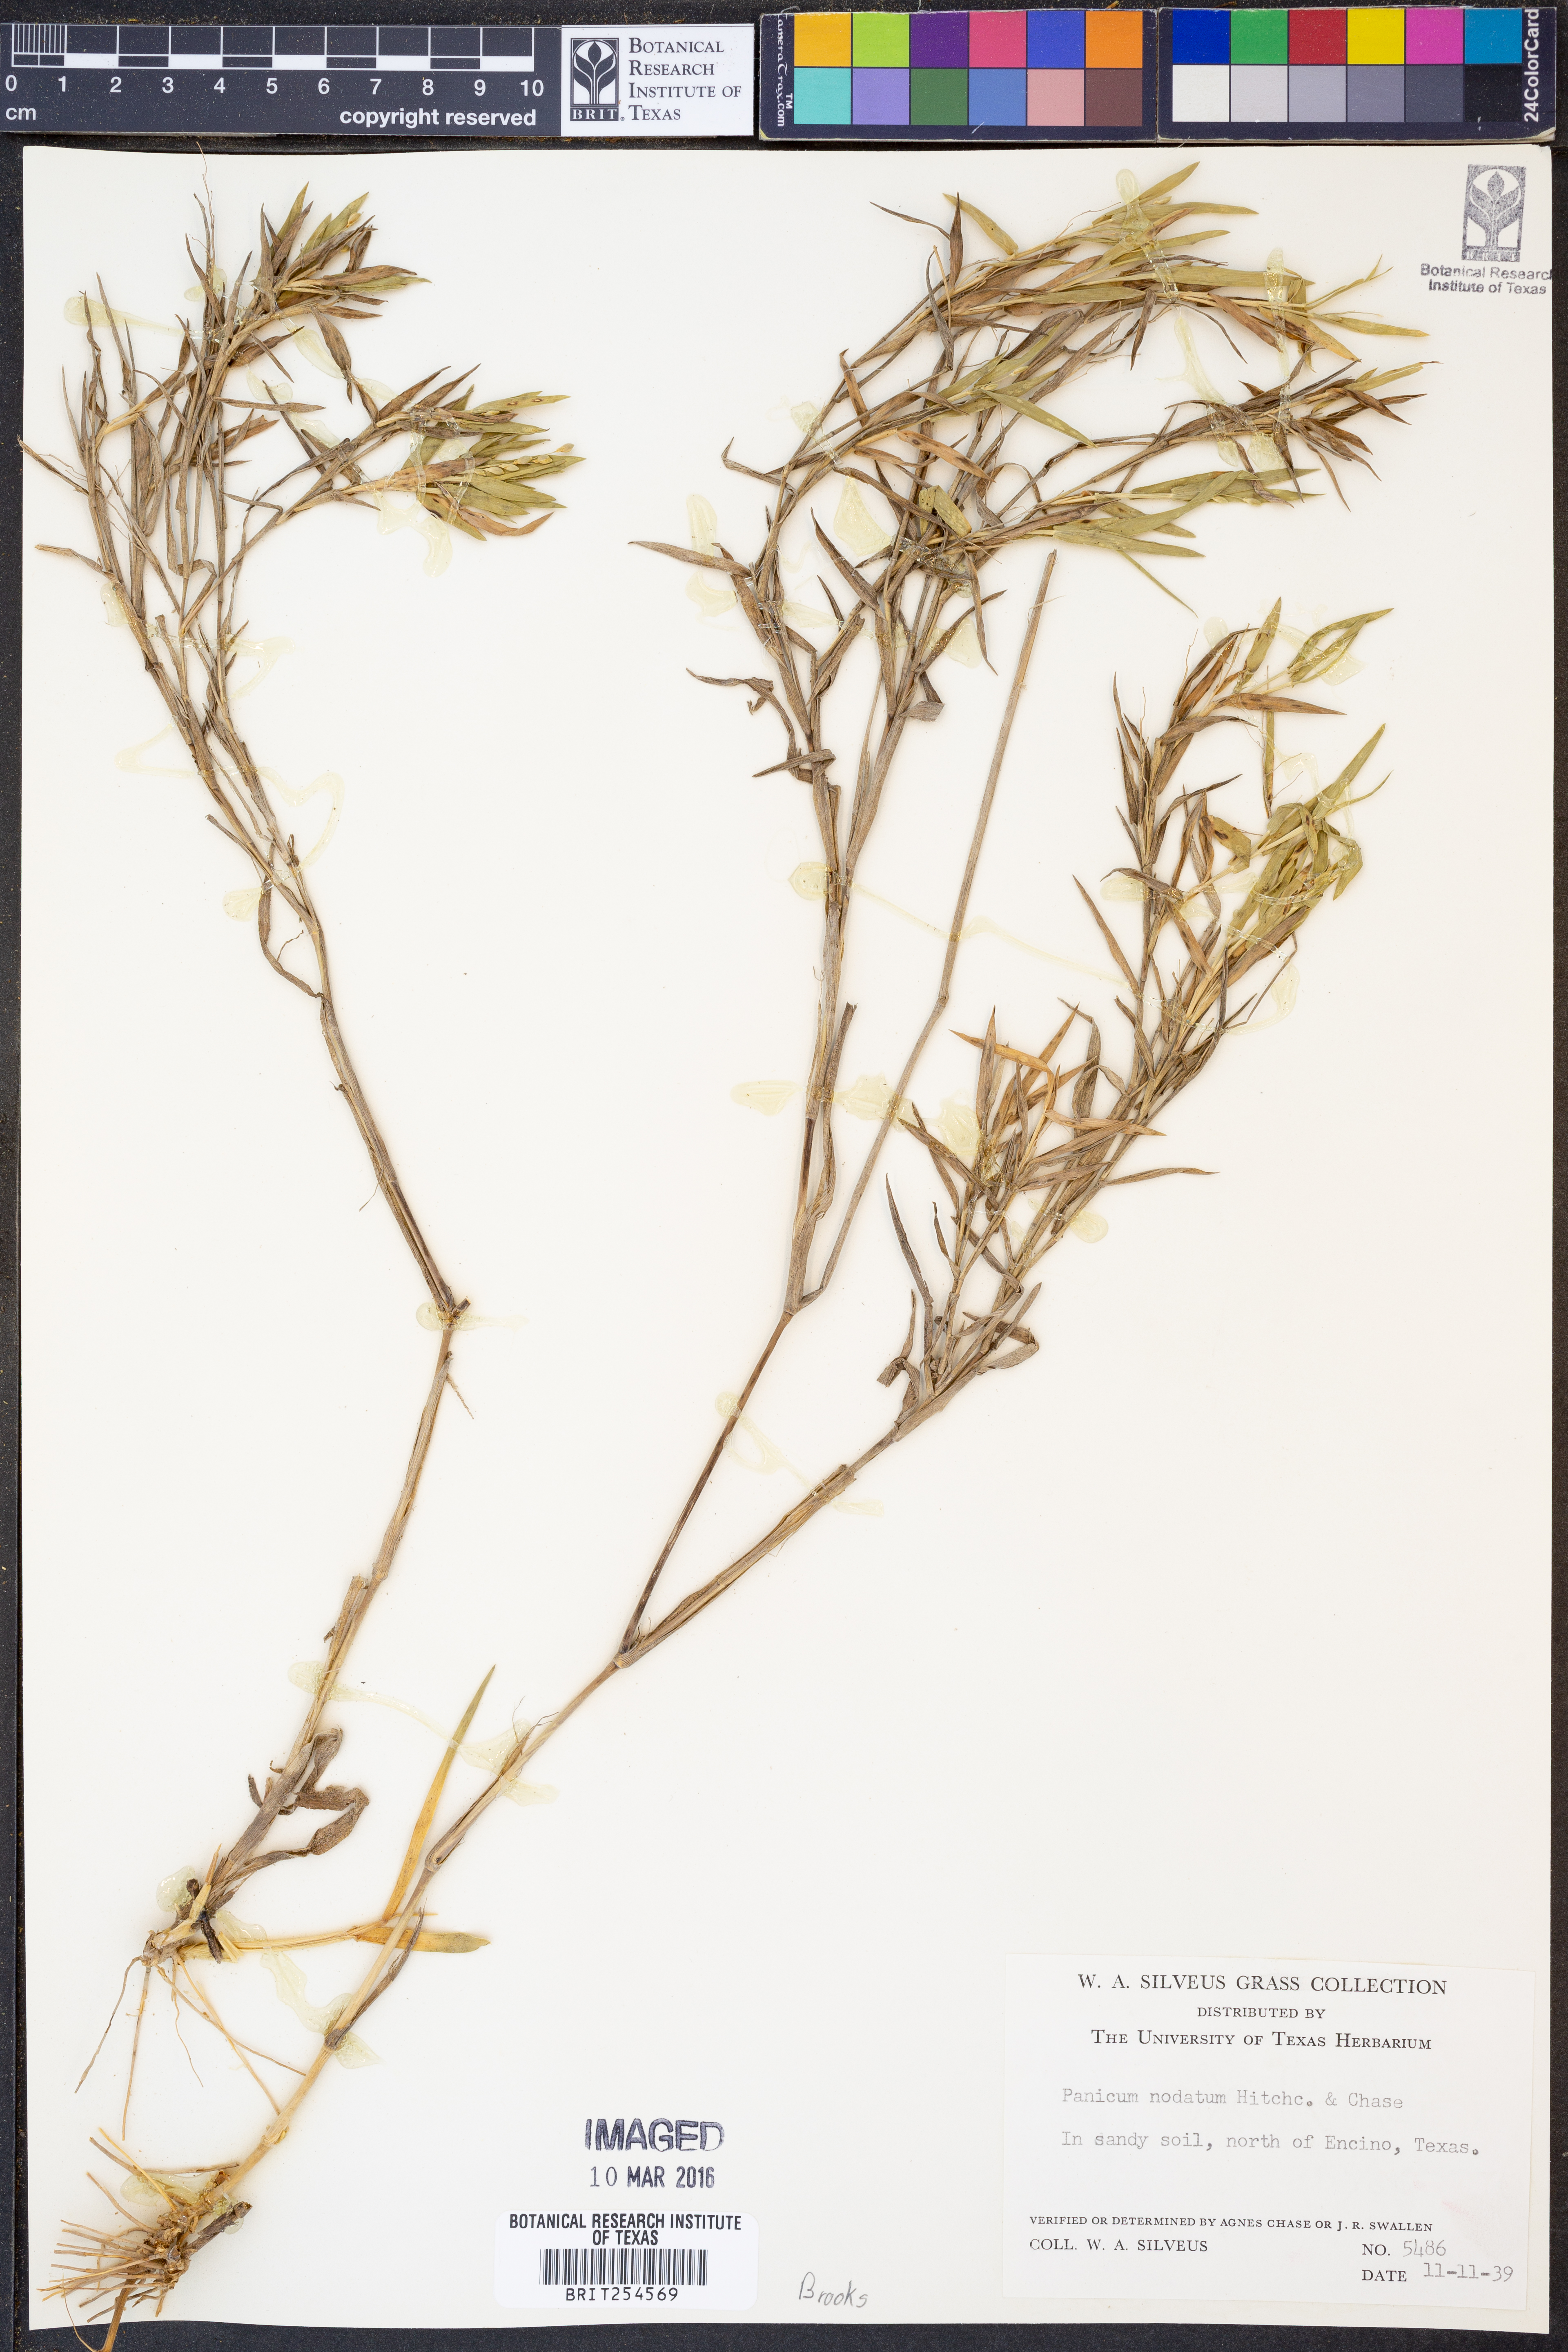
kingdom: Plantae
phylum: Tracheophyta
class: Liliopsida
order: Poales
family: Poaceae
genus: Dichanthelium
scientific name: Dichanthelium nodatum
